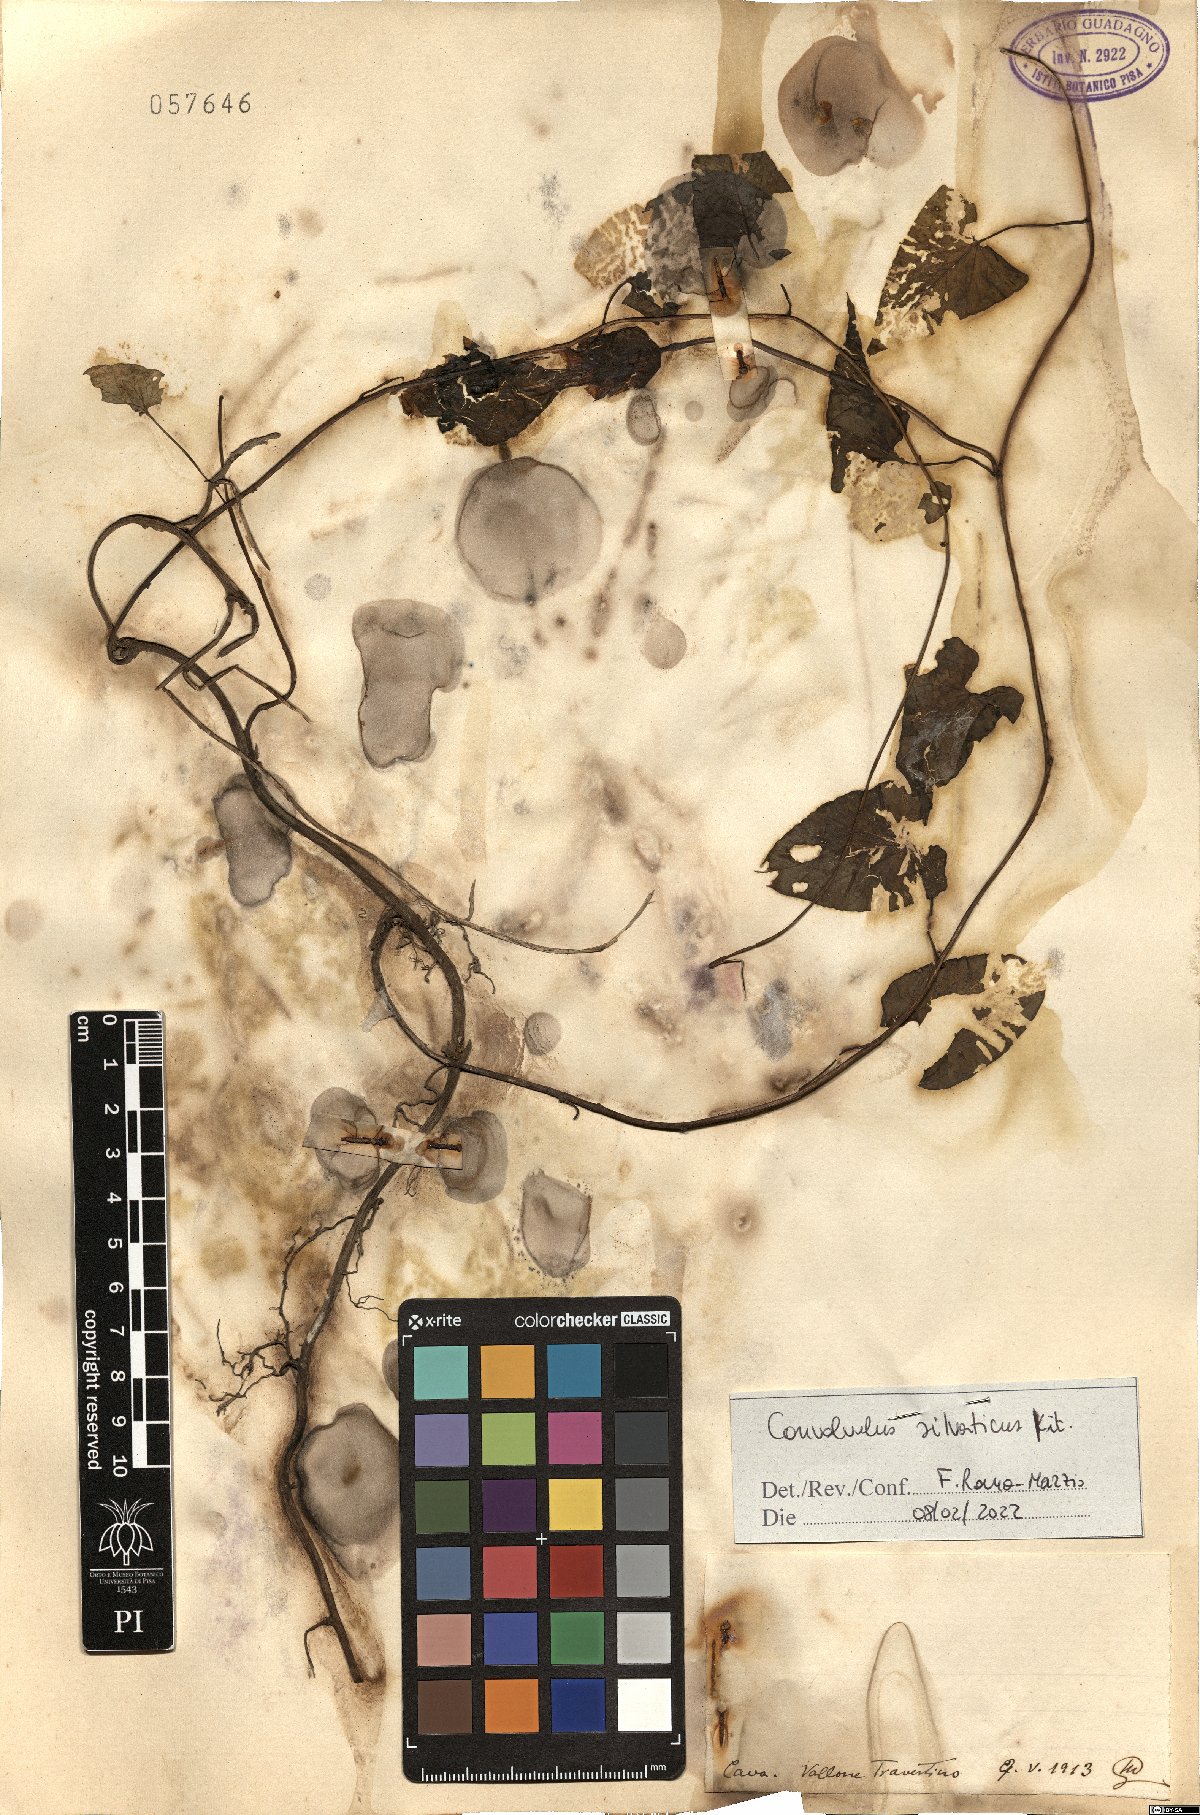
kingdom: Plantae
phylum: Tracheophyta
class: Magnoliopsida
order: Solanales
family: Convolvulaceae
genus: Calystegia
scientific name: Calystegia silvatica
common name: Large bindweed
